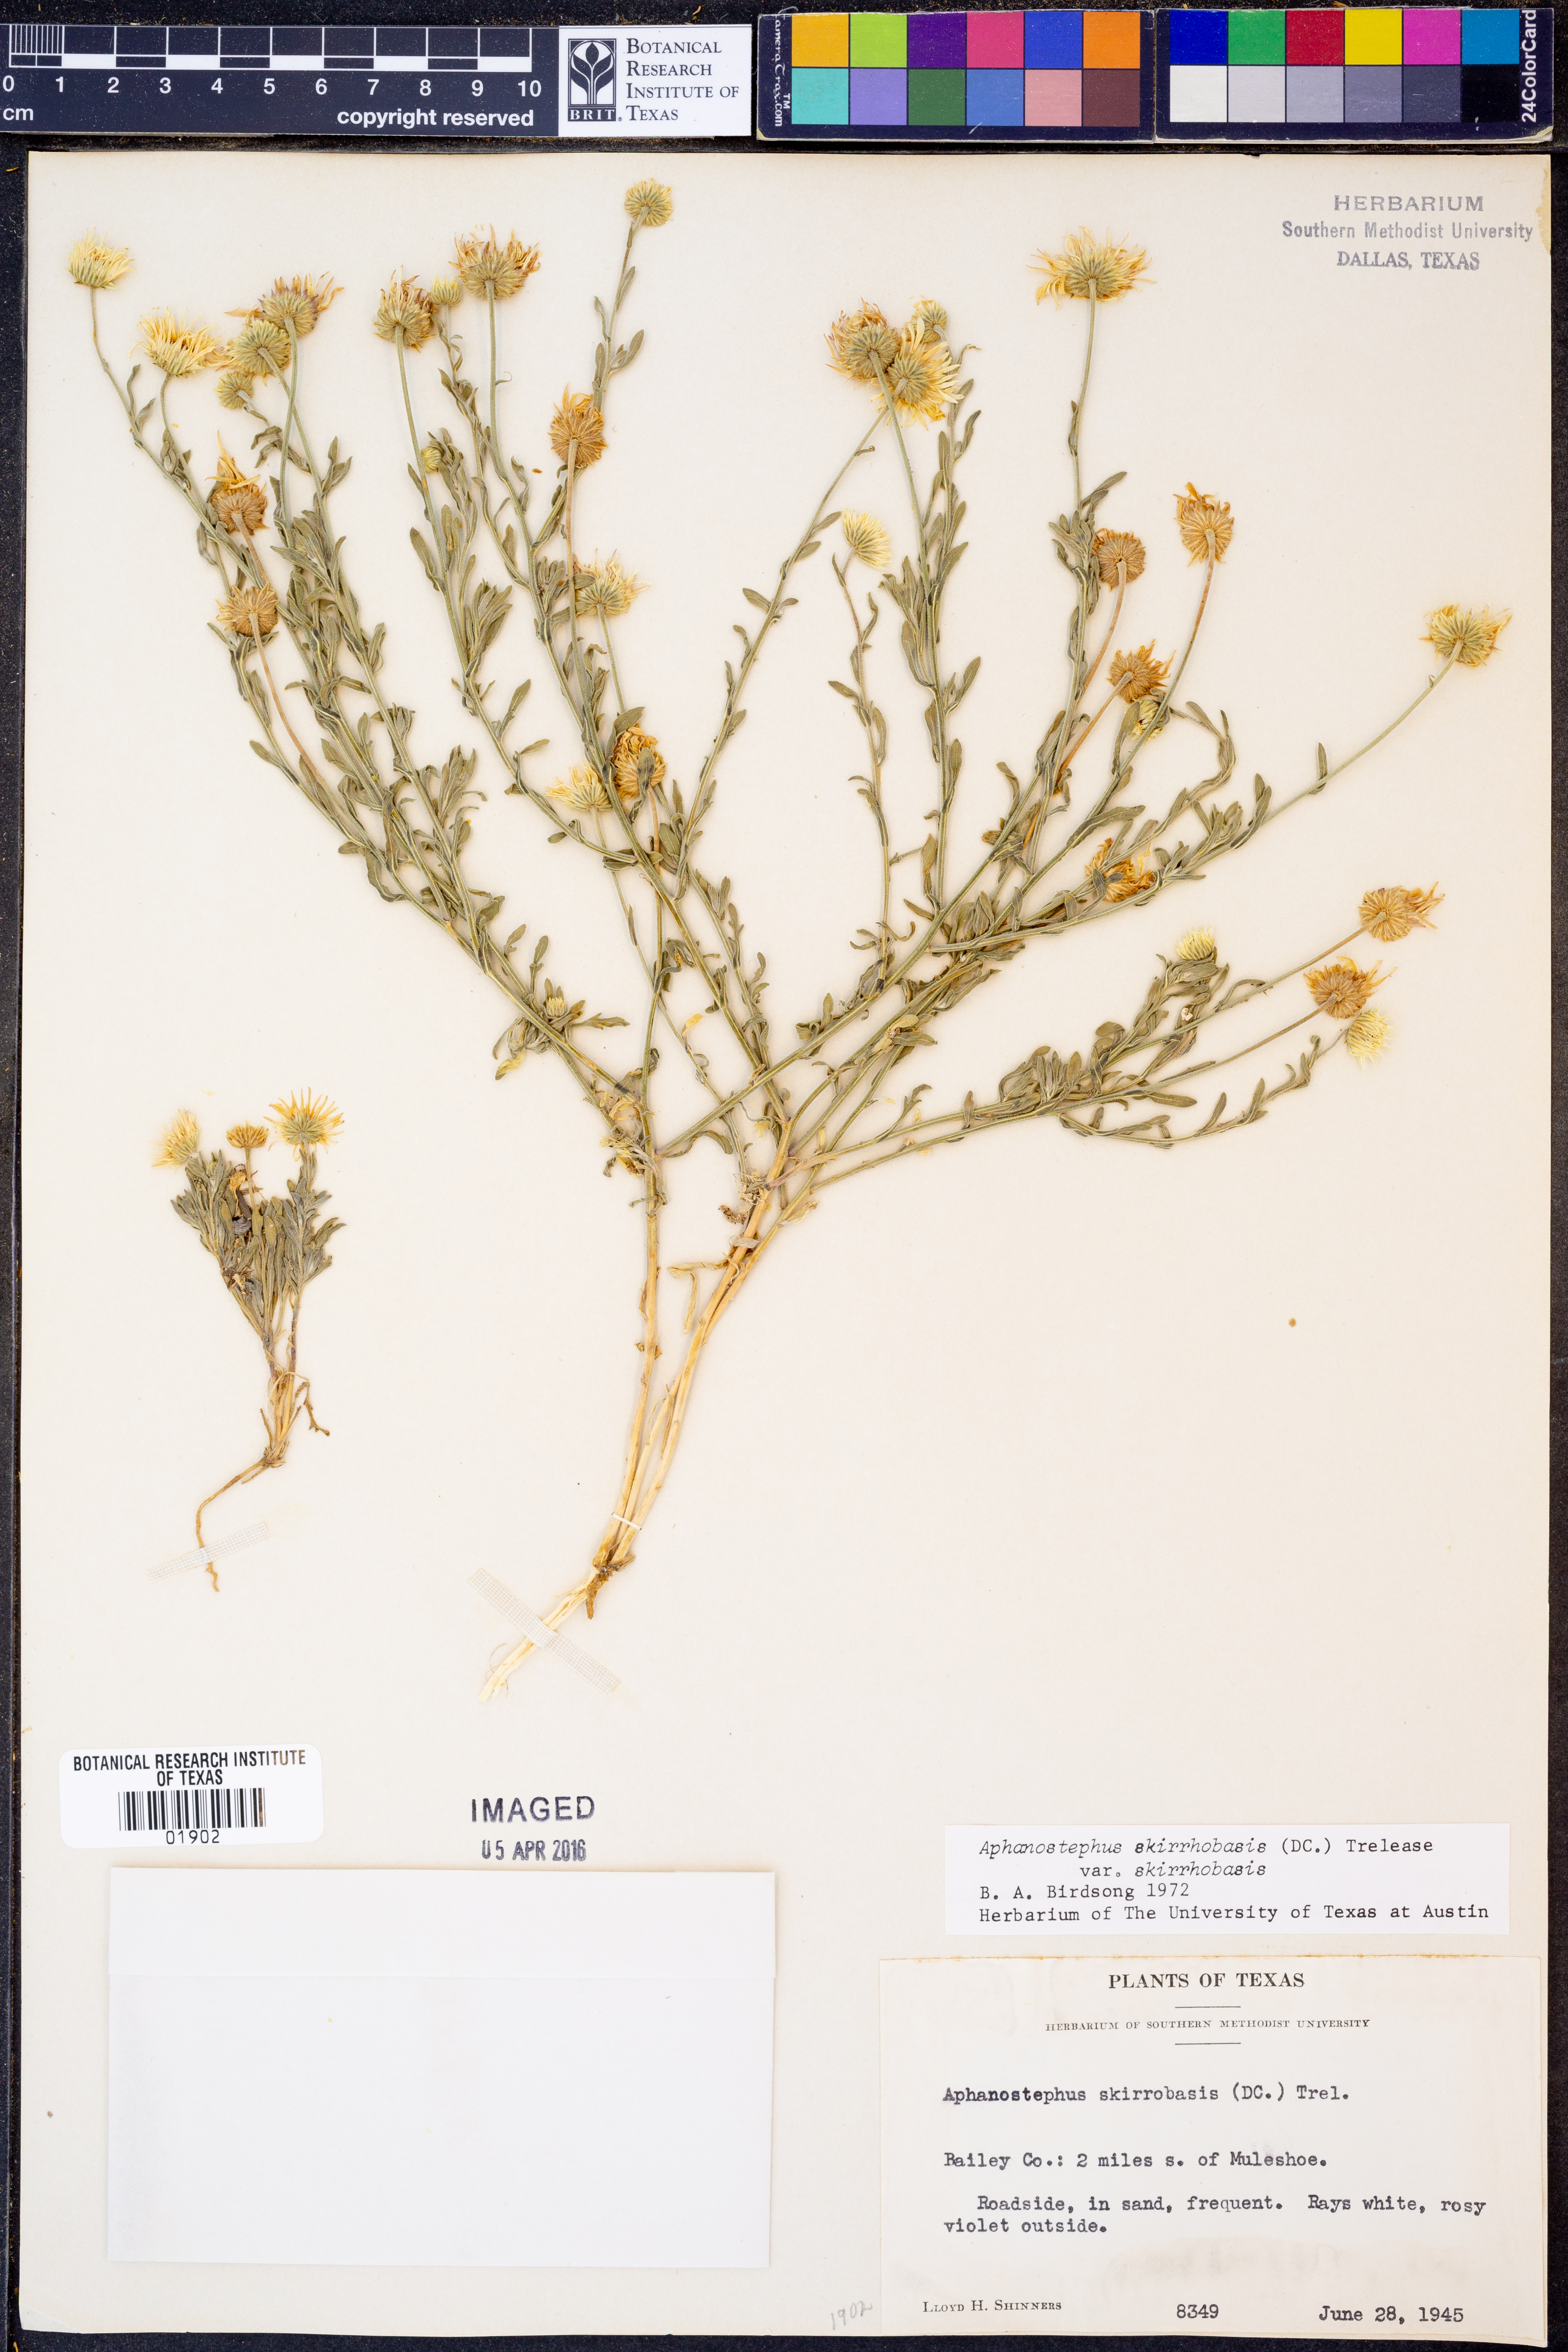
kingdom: Plantae
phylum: Tracheophyta
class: Magnoliopsida
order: Asterales
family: Asteraceae
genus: Aphanostephus
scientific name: Aphanostephus skirrhobasis
